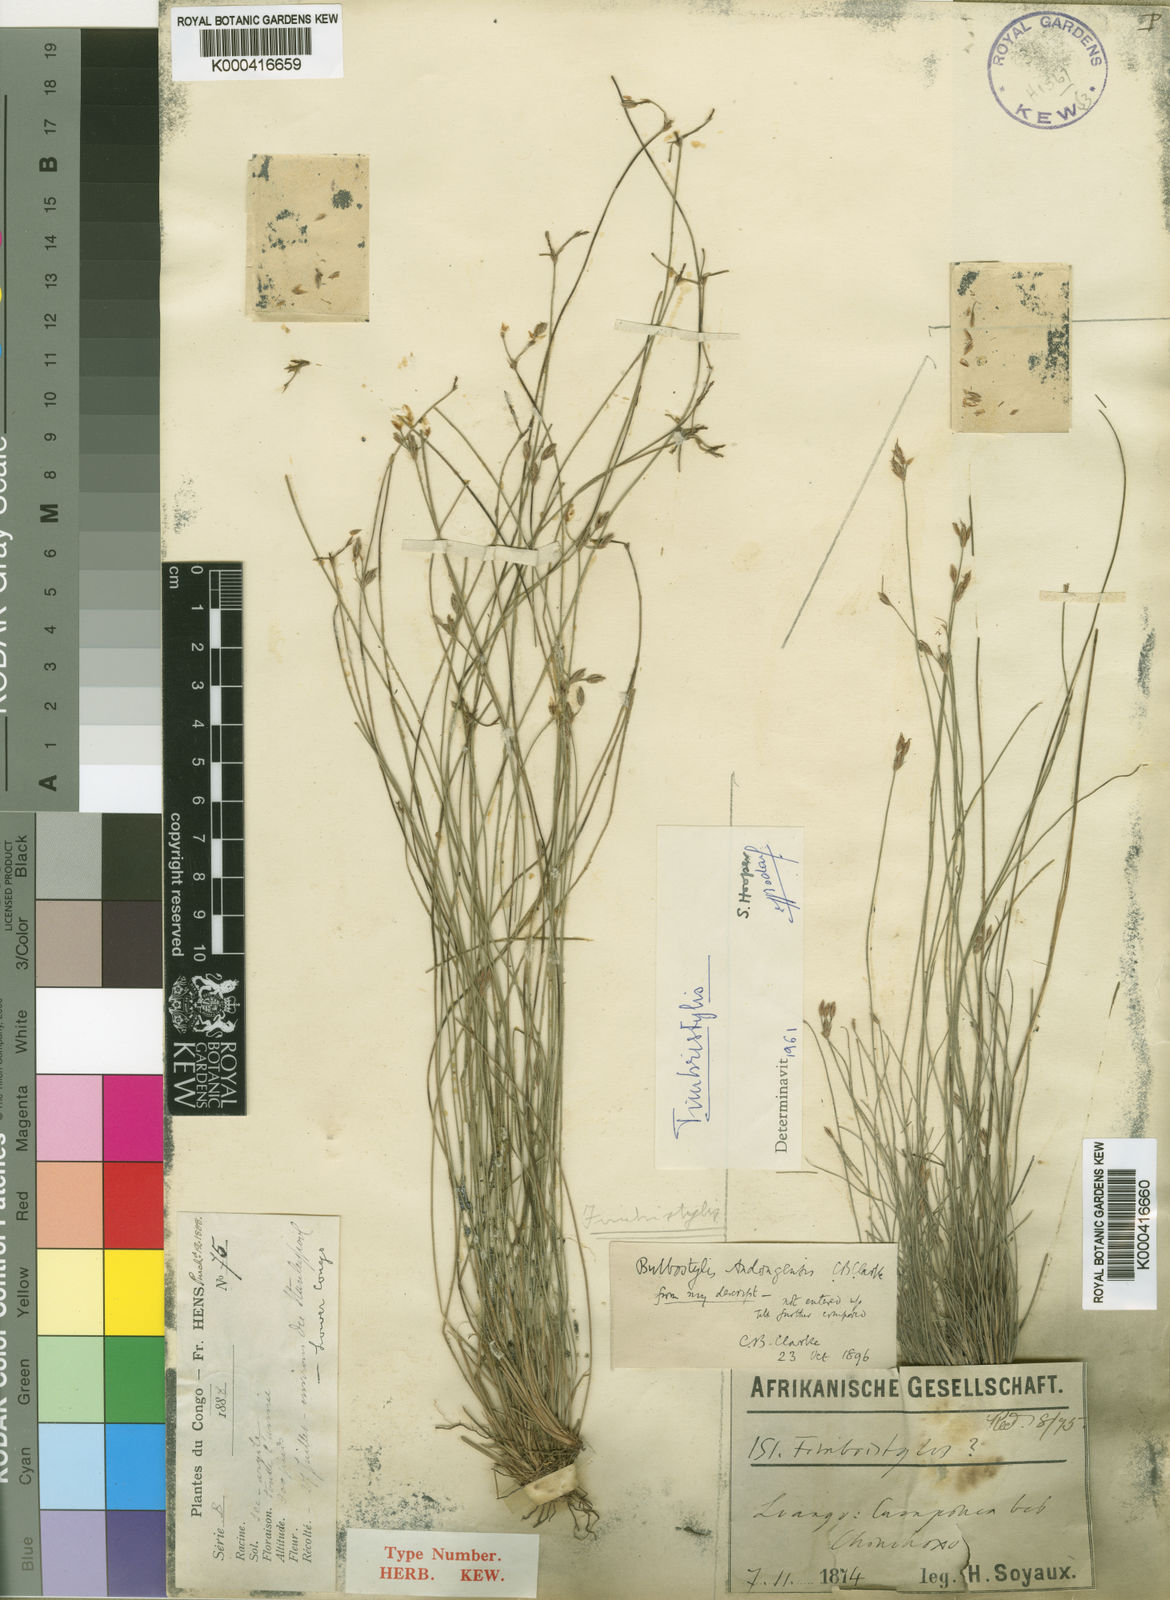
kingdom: Plantae
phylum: Tracheophyta
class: Liliopsida
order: Poales
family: Cyperaceae
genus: Bulbostylis
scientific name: Bulbostylis hensii
